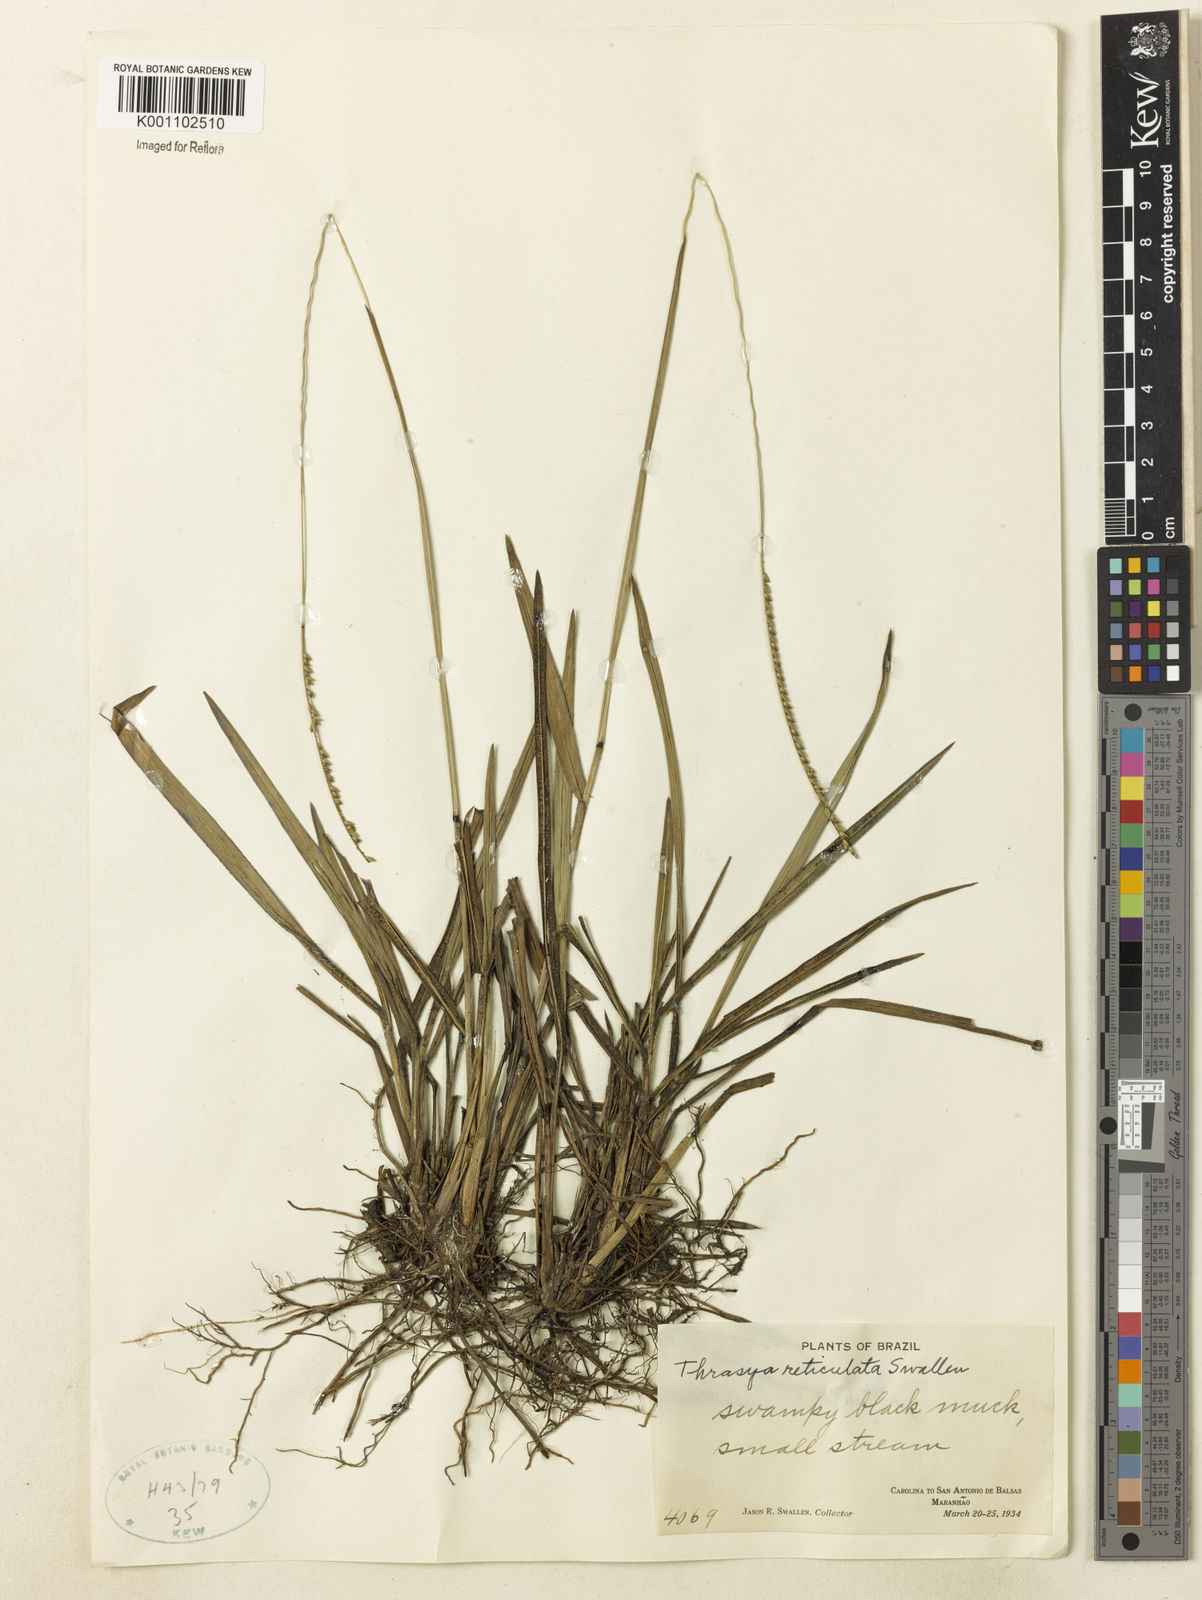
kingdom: Plantae
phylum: Tracheophyta
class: Liliopsida
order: Poales
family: Poaceae
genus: Paspalum
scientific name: Paspalum cinerascens
